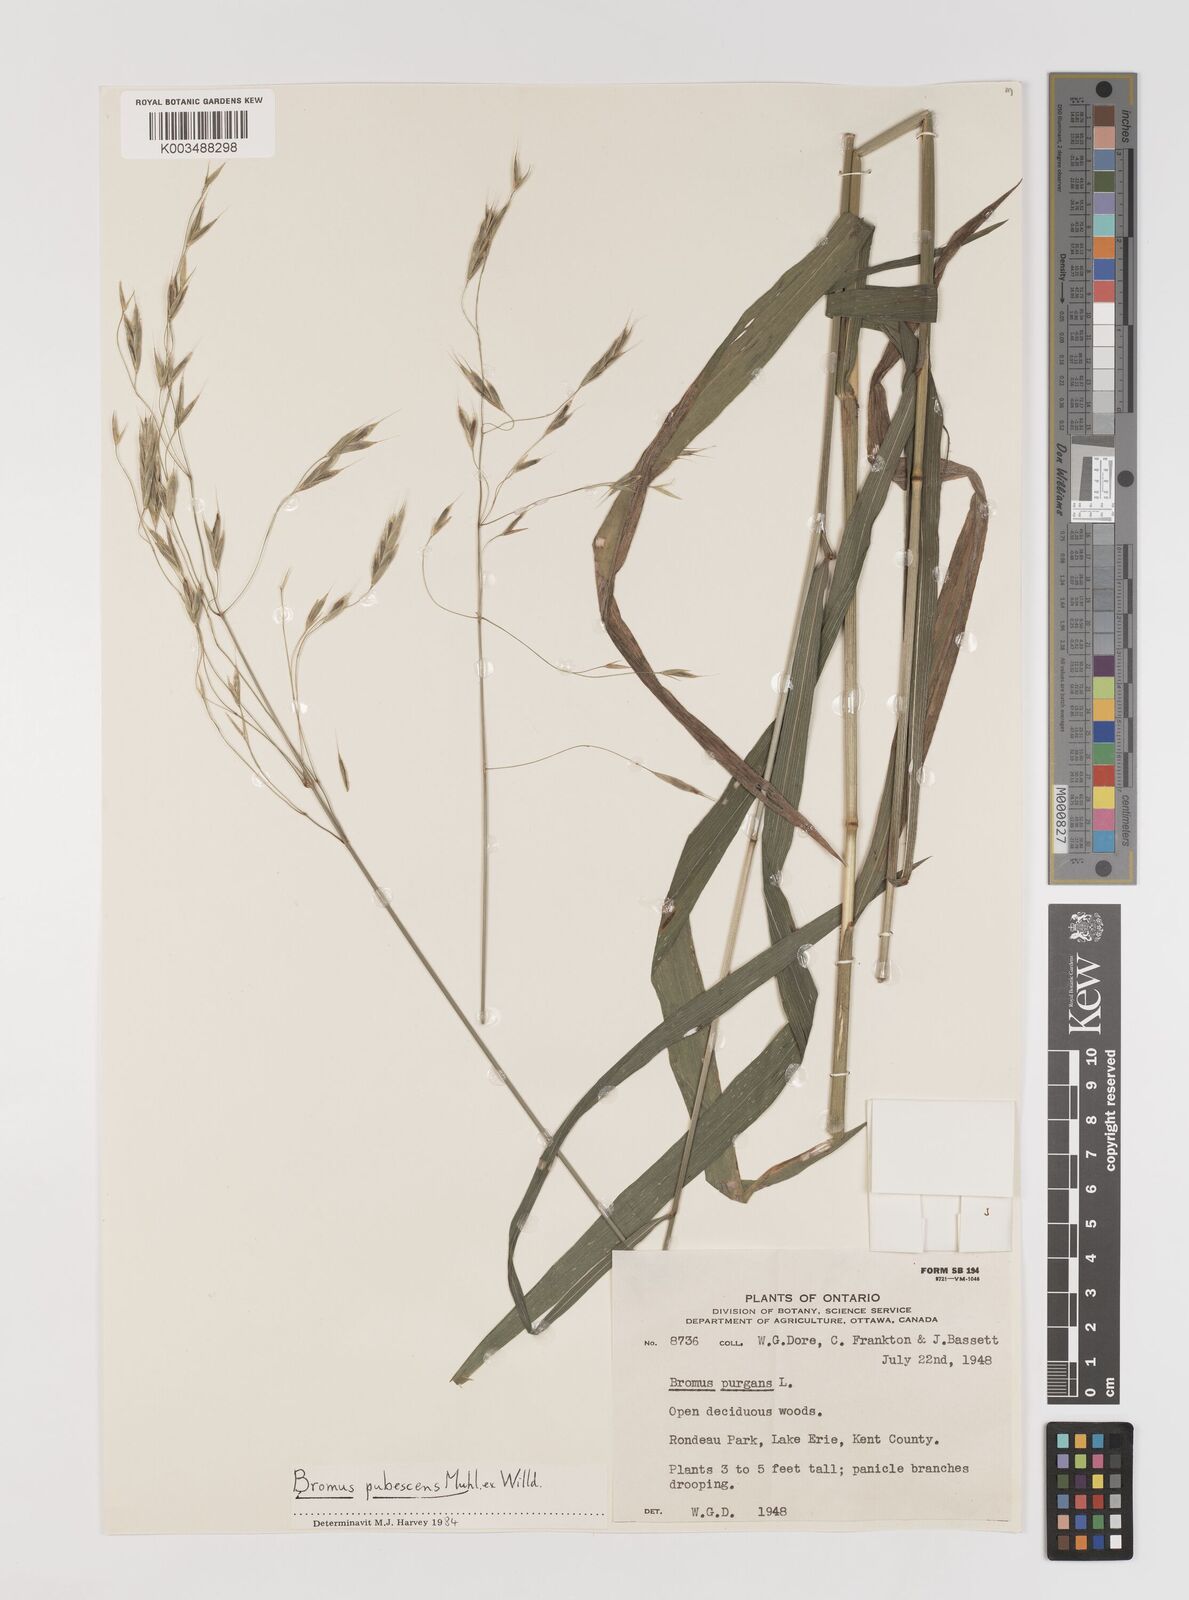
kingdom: Plantae
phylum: Tracheophyta
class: Liliopsida
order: Poales
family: Poaceae
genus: Bromus
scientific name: Bromus pubescens
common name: Hairy wood brome grass
